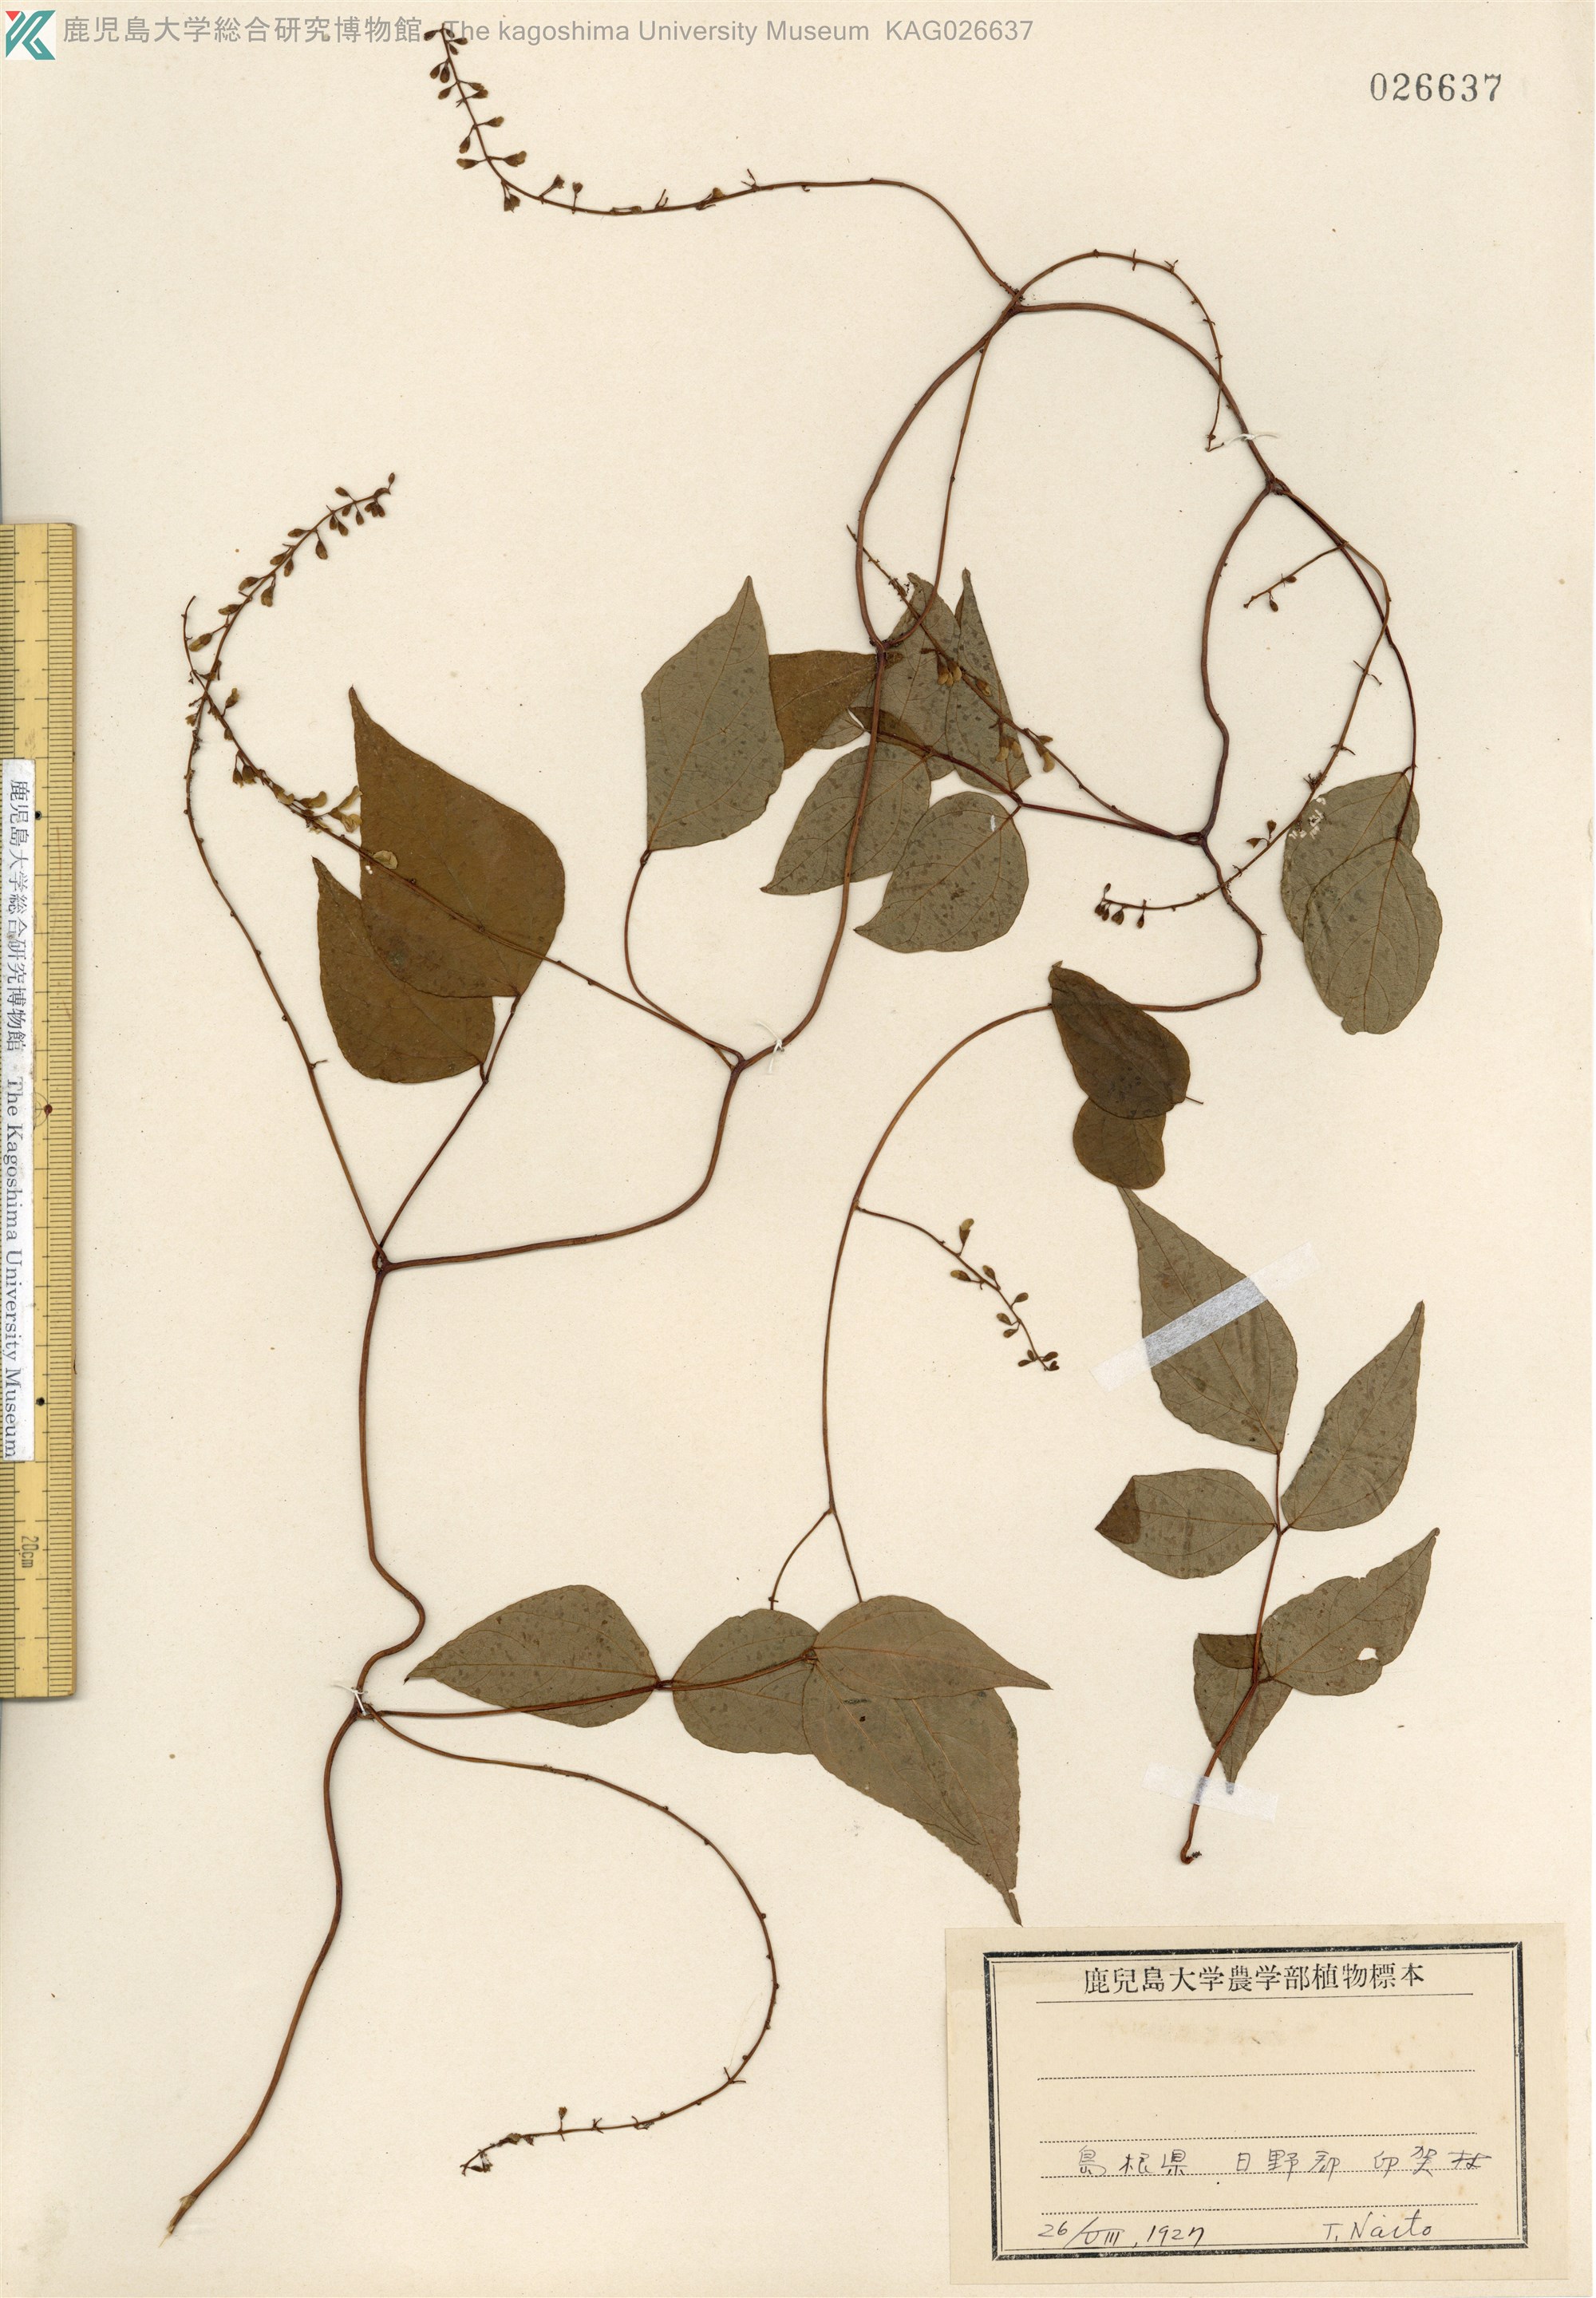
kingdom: Plantae
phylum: Tracheophyta
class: Magnoliopsida
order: Fabales
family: Fabaceae
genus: Apios
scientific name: Apios fortunei
